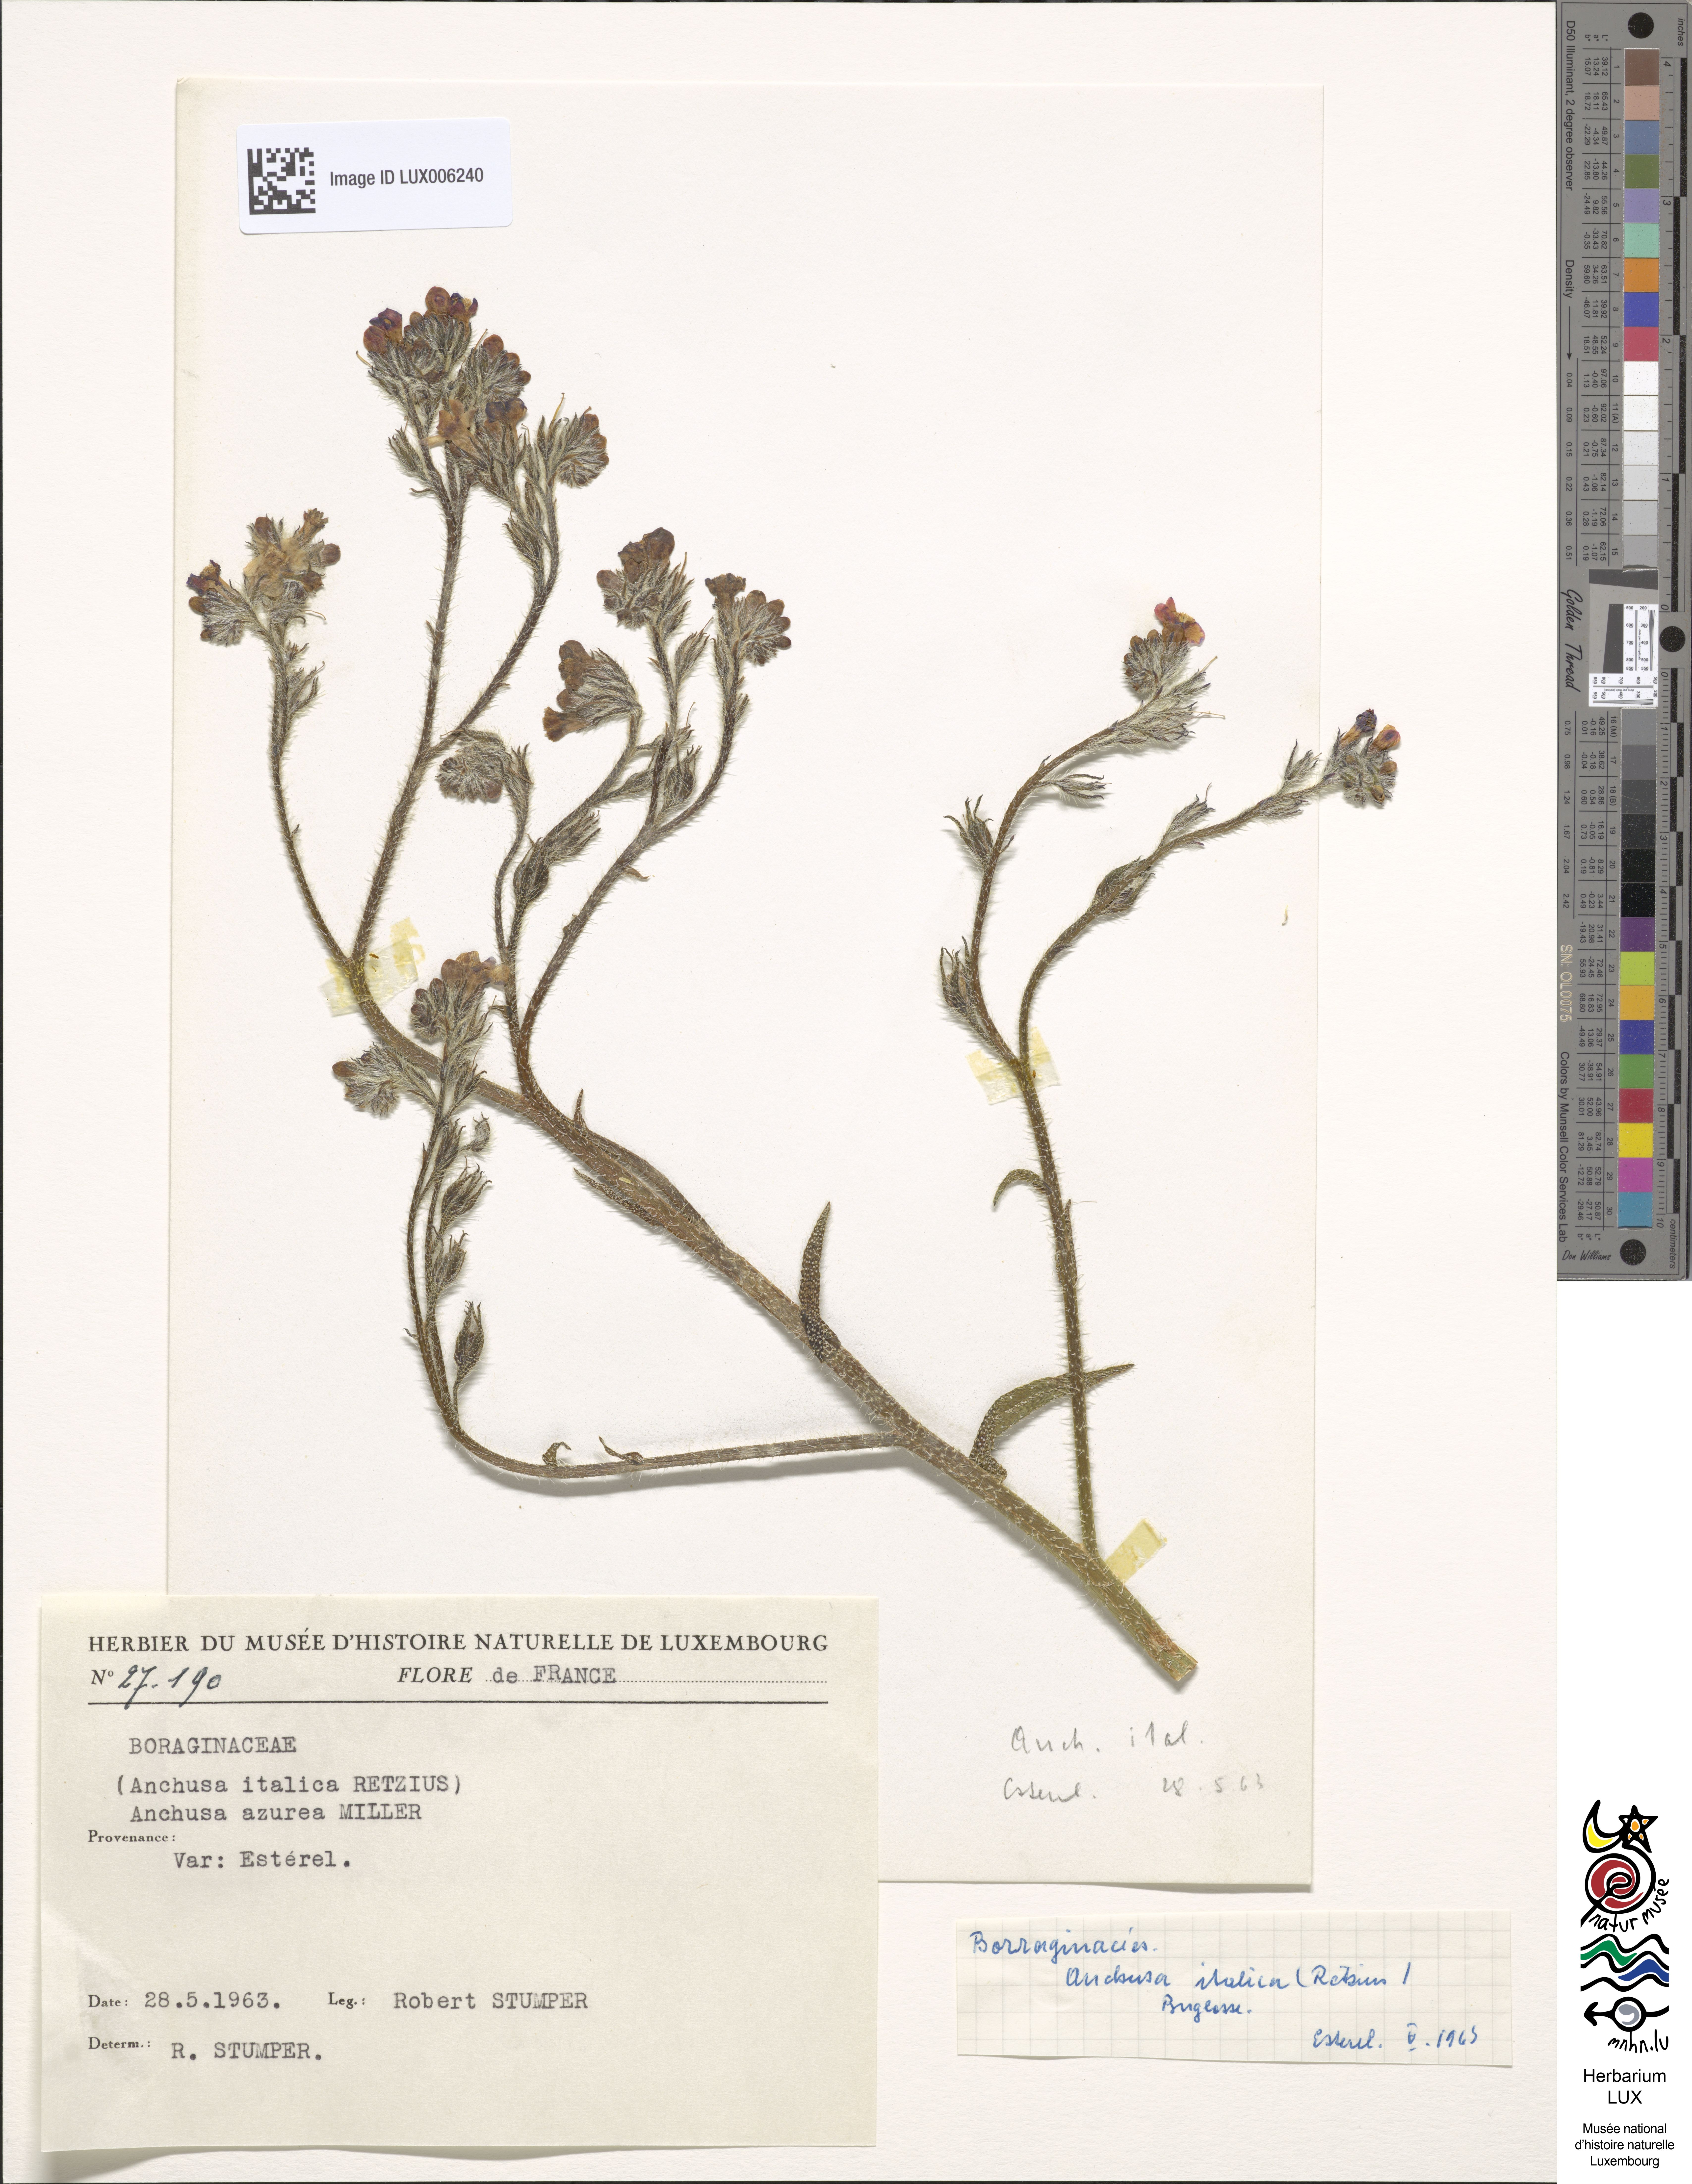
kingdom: Plantae
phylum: Tracheophyta
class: Magnoliopsida
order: Boraginales
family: Boraginaceae
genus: Anchusa
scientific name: Anchusa azurea
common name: Garden anchusa
